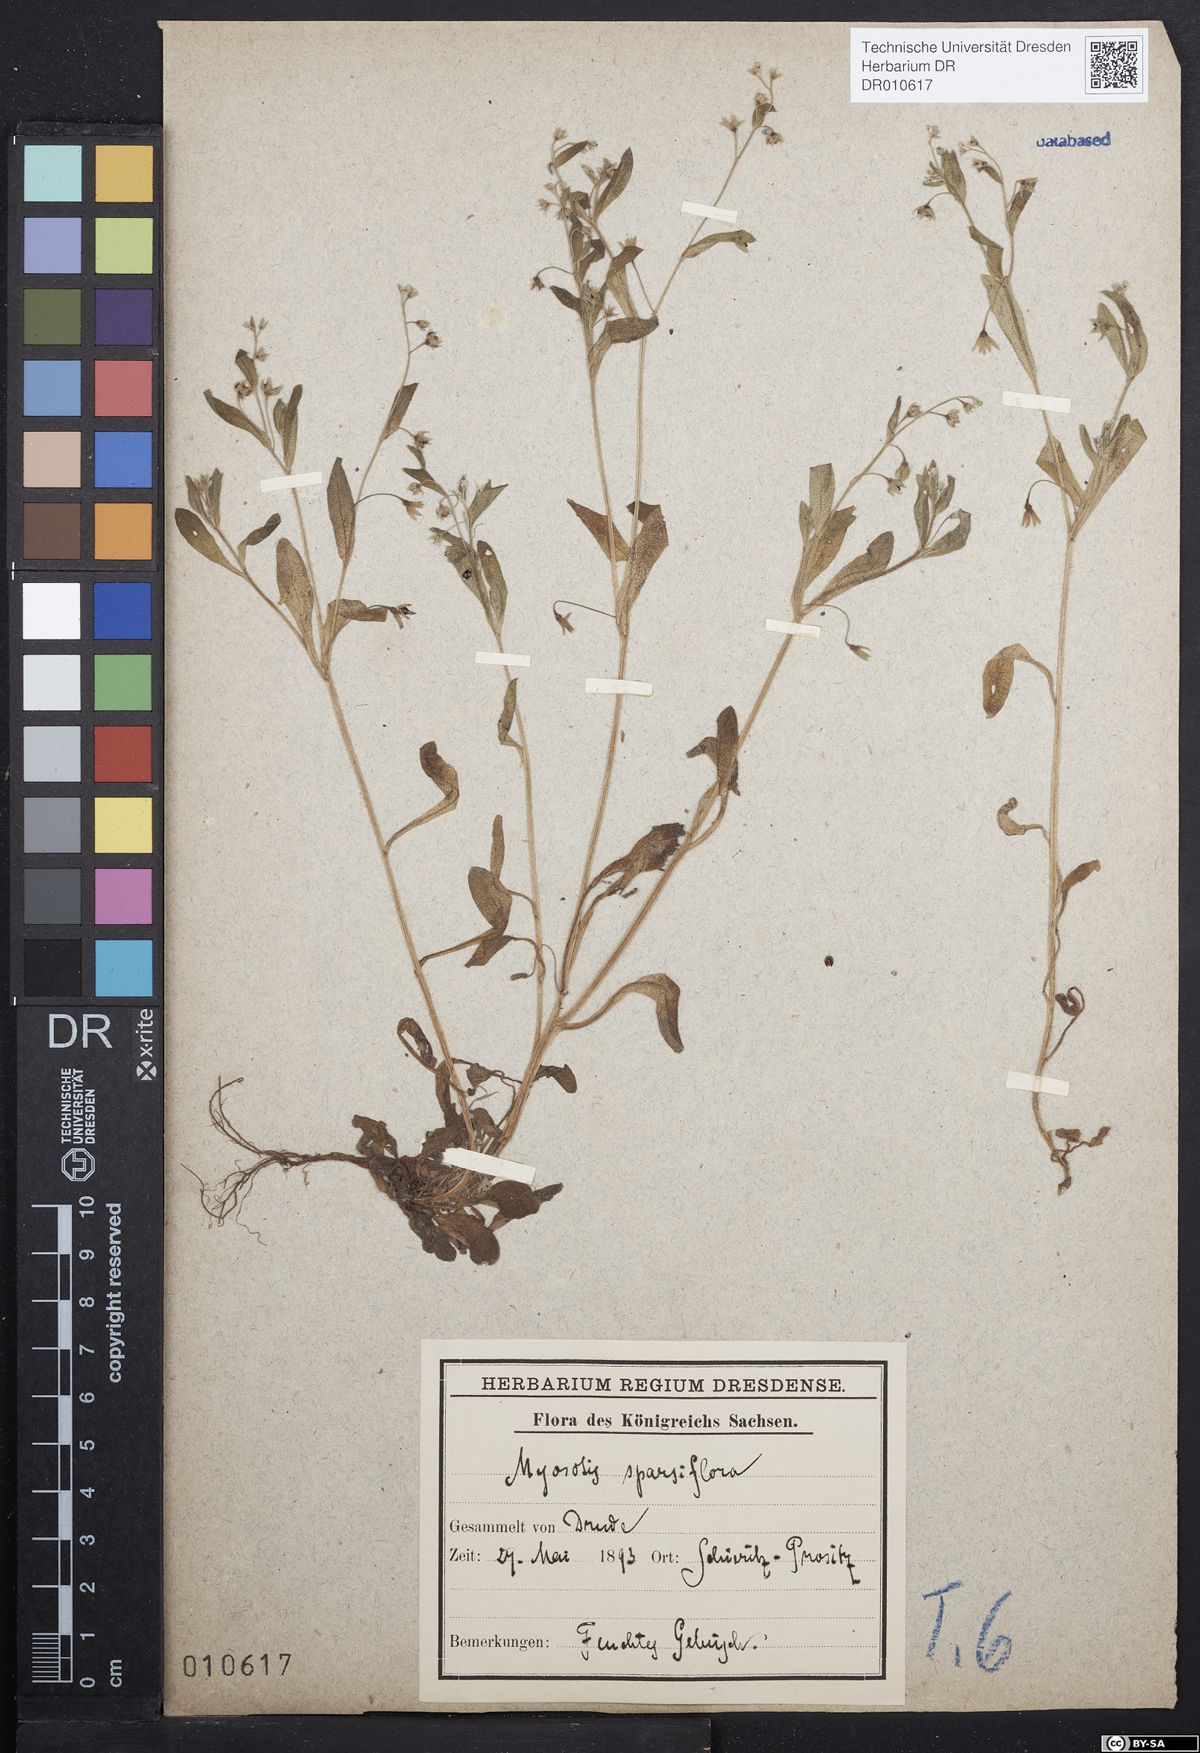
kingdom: Plantae
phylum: Tracheophyta
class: Magnoliopsida
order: Boraginales
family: Boraginaceae
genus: Myosotis
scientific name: Myosotis sparsiflora
